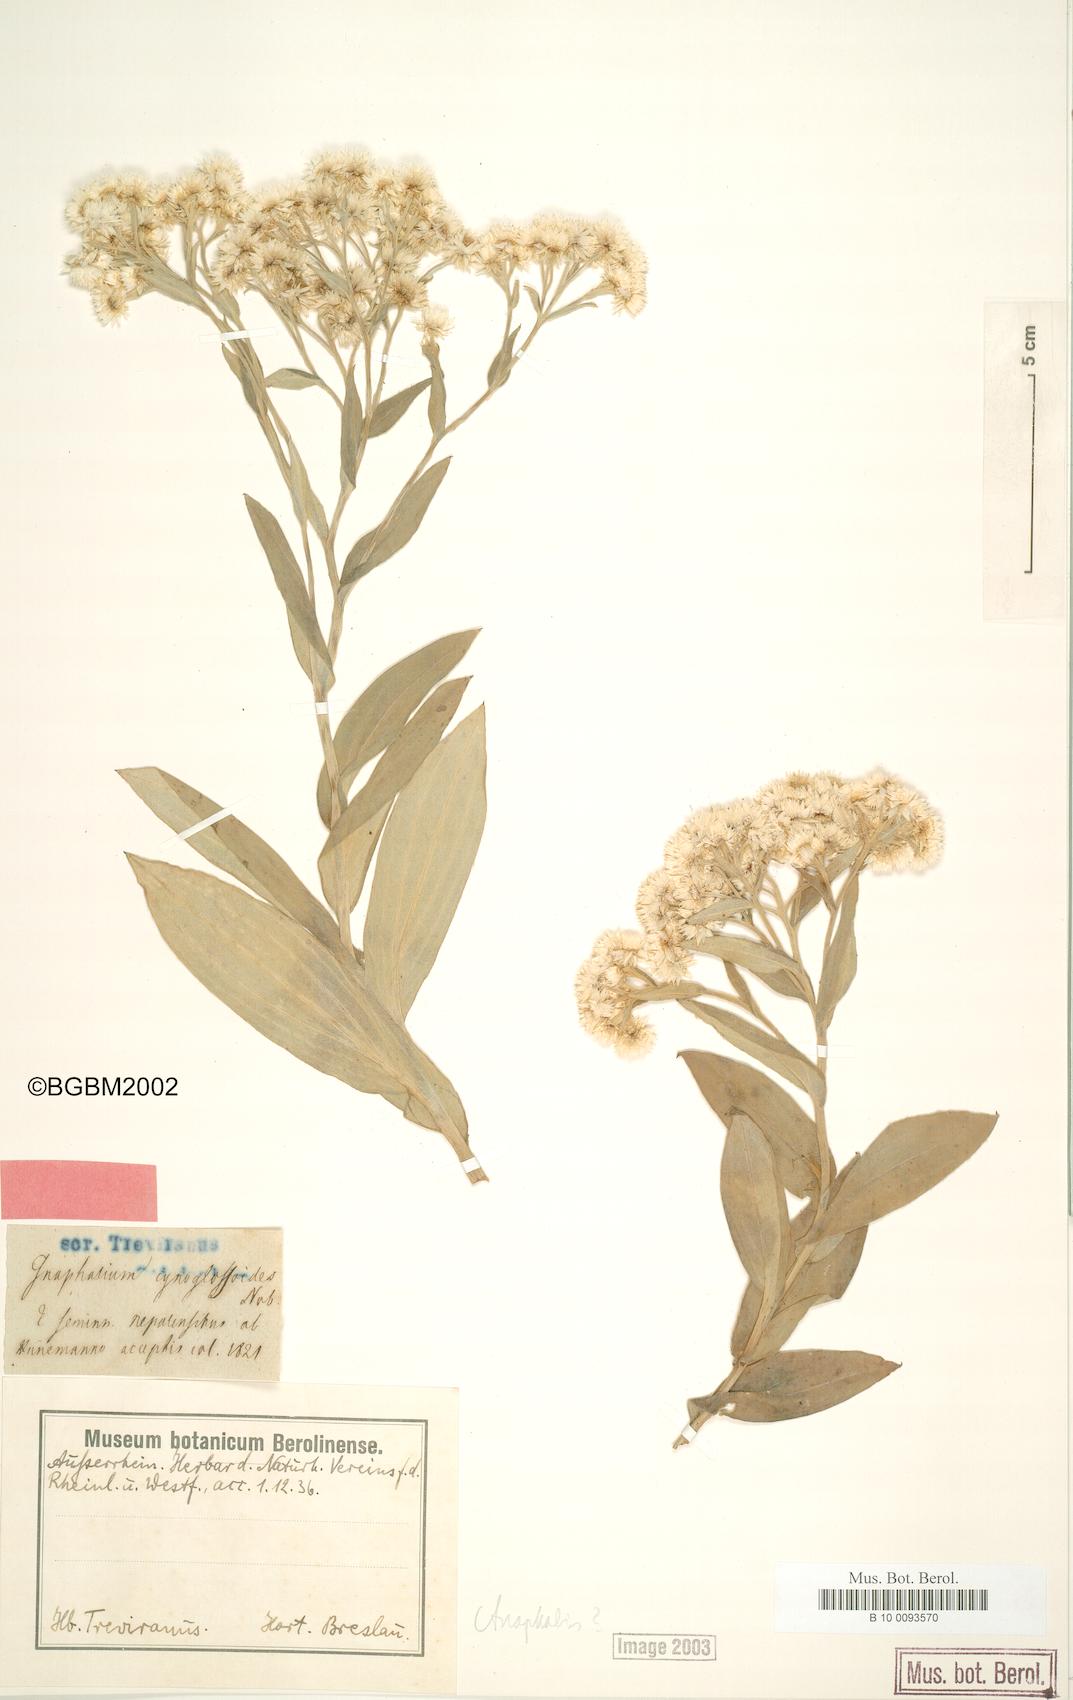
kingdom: Plantae
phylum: Tracheophyta
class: Magnoliopsida
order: Asterales
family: Asteraceae
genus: Anaphalis
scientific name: Anaphalis triplinervis
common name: Pearly everlasting
